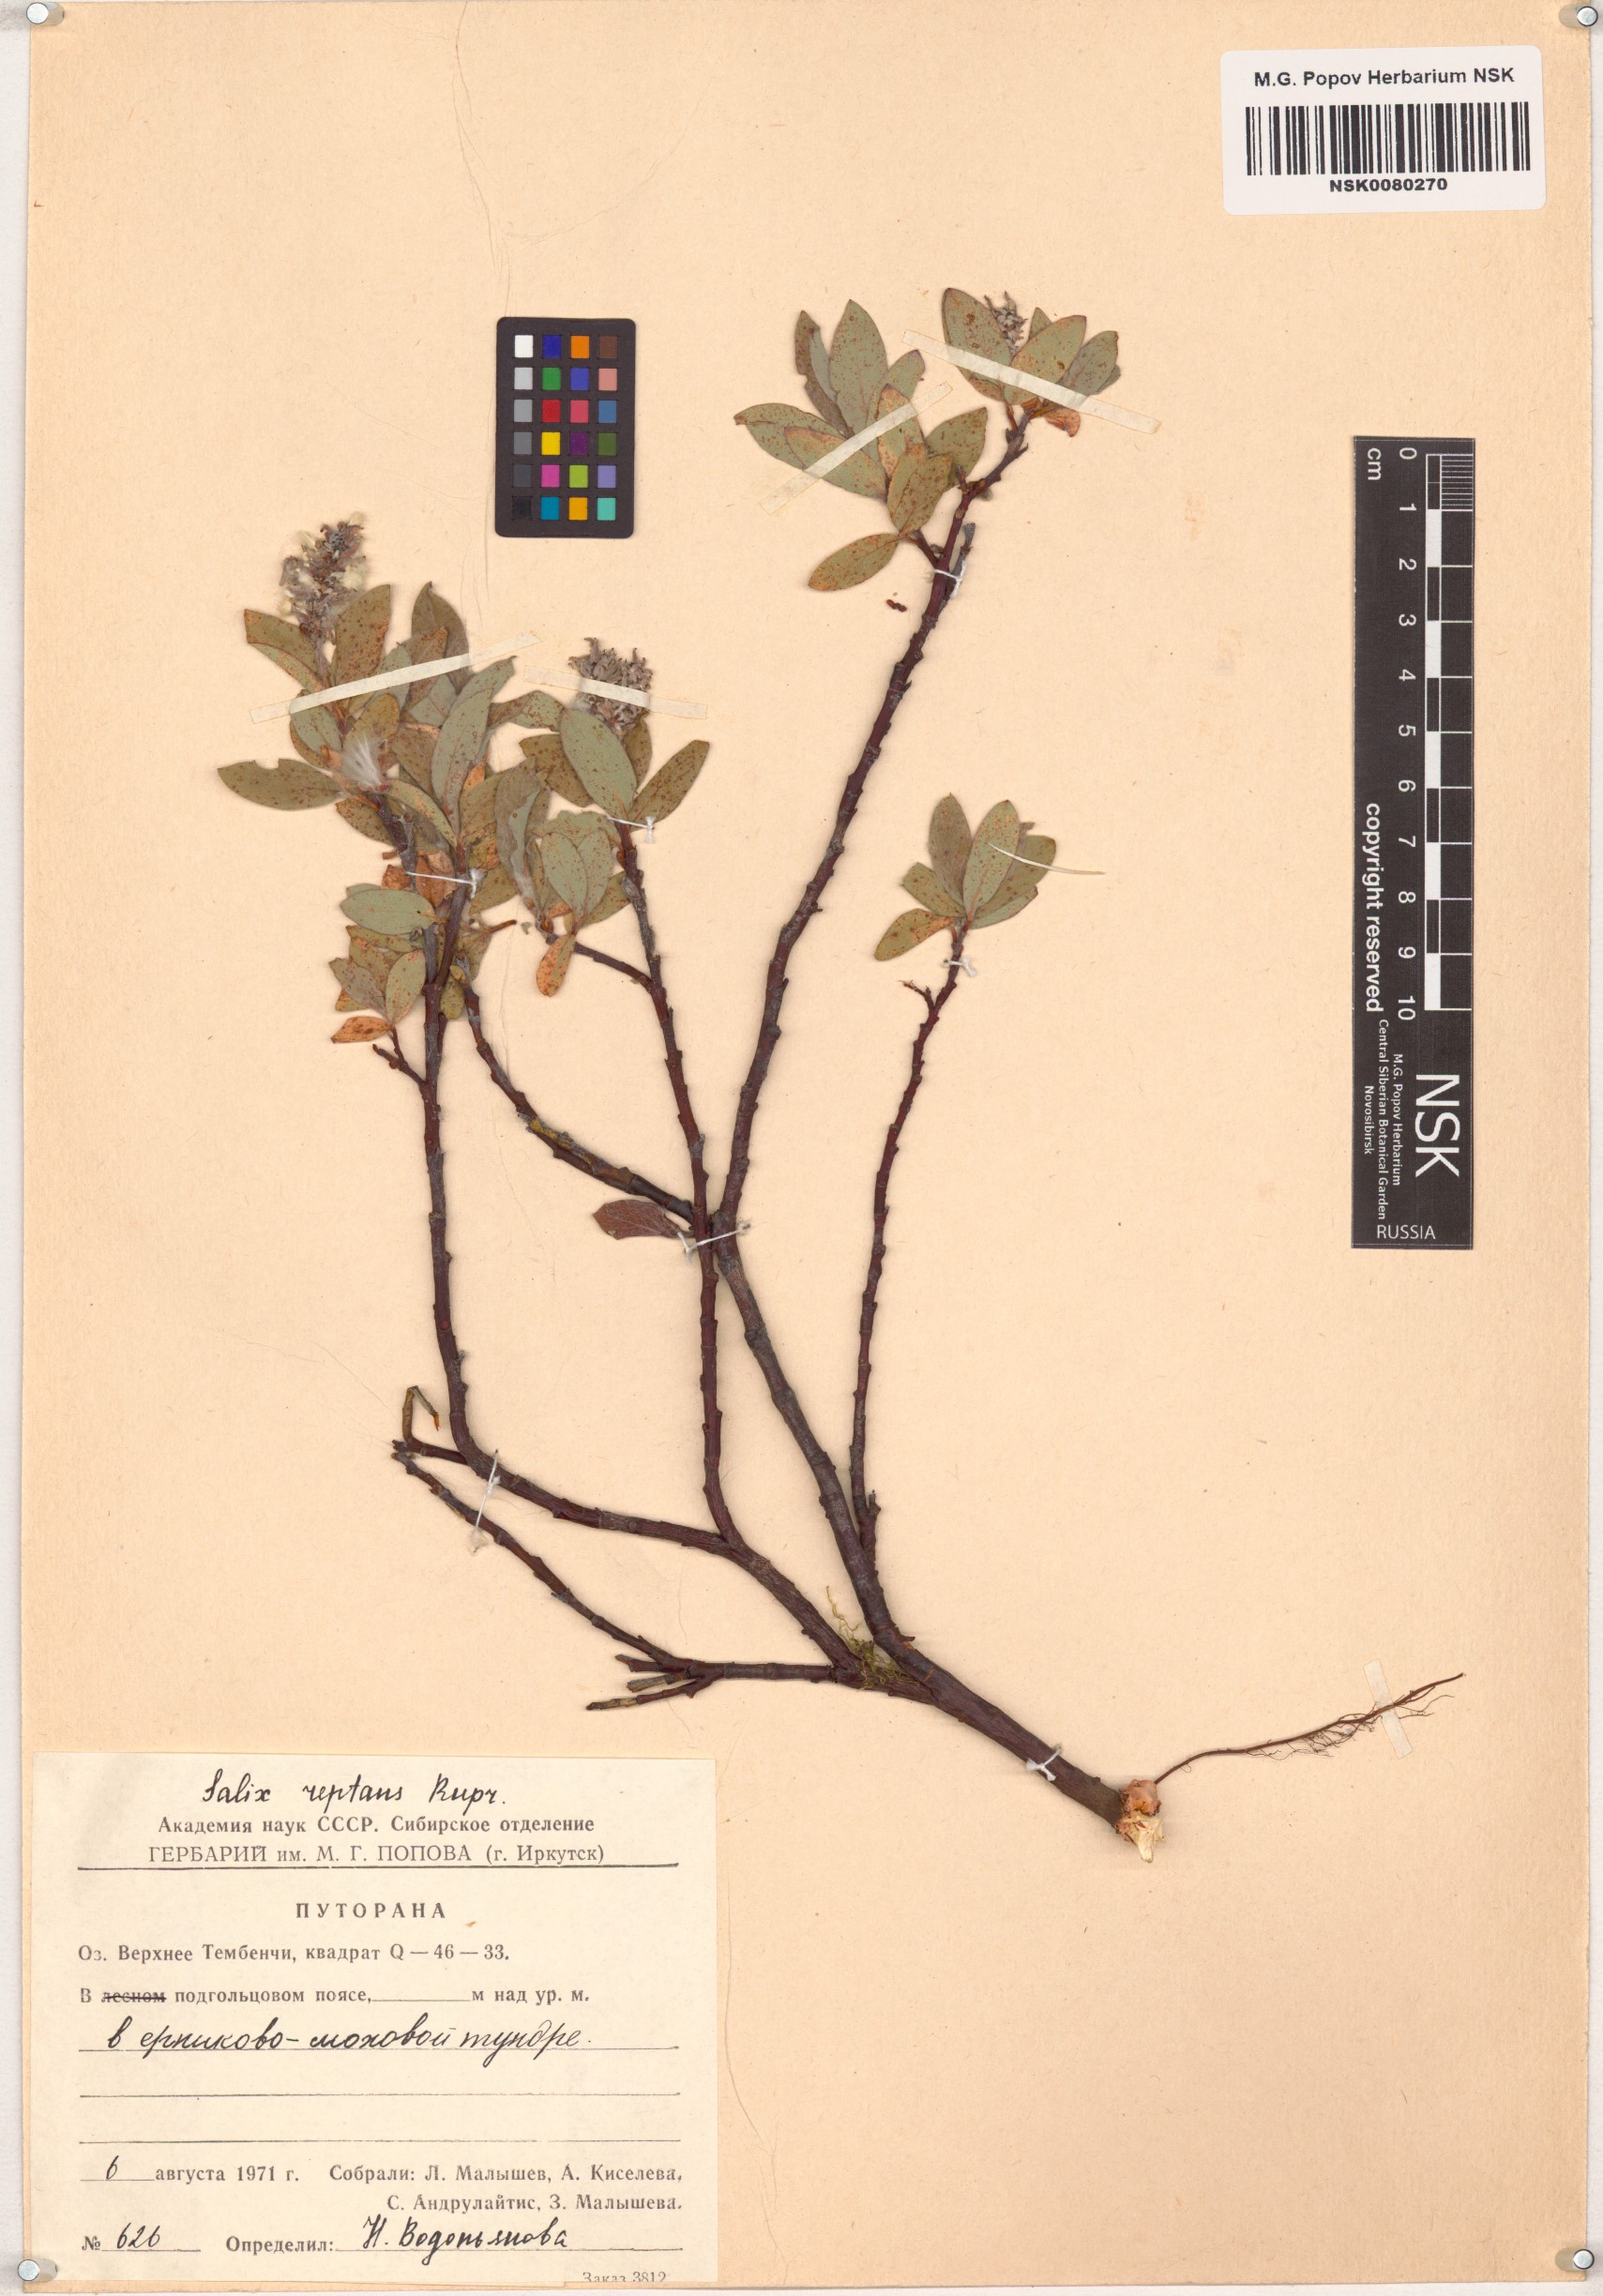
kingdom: Plantae
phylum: Tracheophyta
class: Magnoliopsida
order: Malpighiales
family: Salicaceae
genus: Salix
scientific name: Salix reptans
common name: Arctic creeping willow
